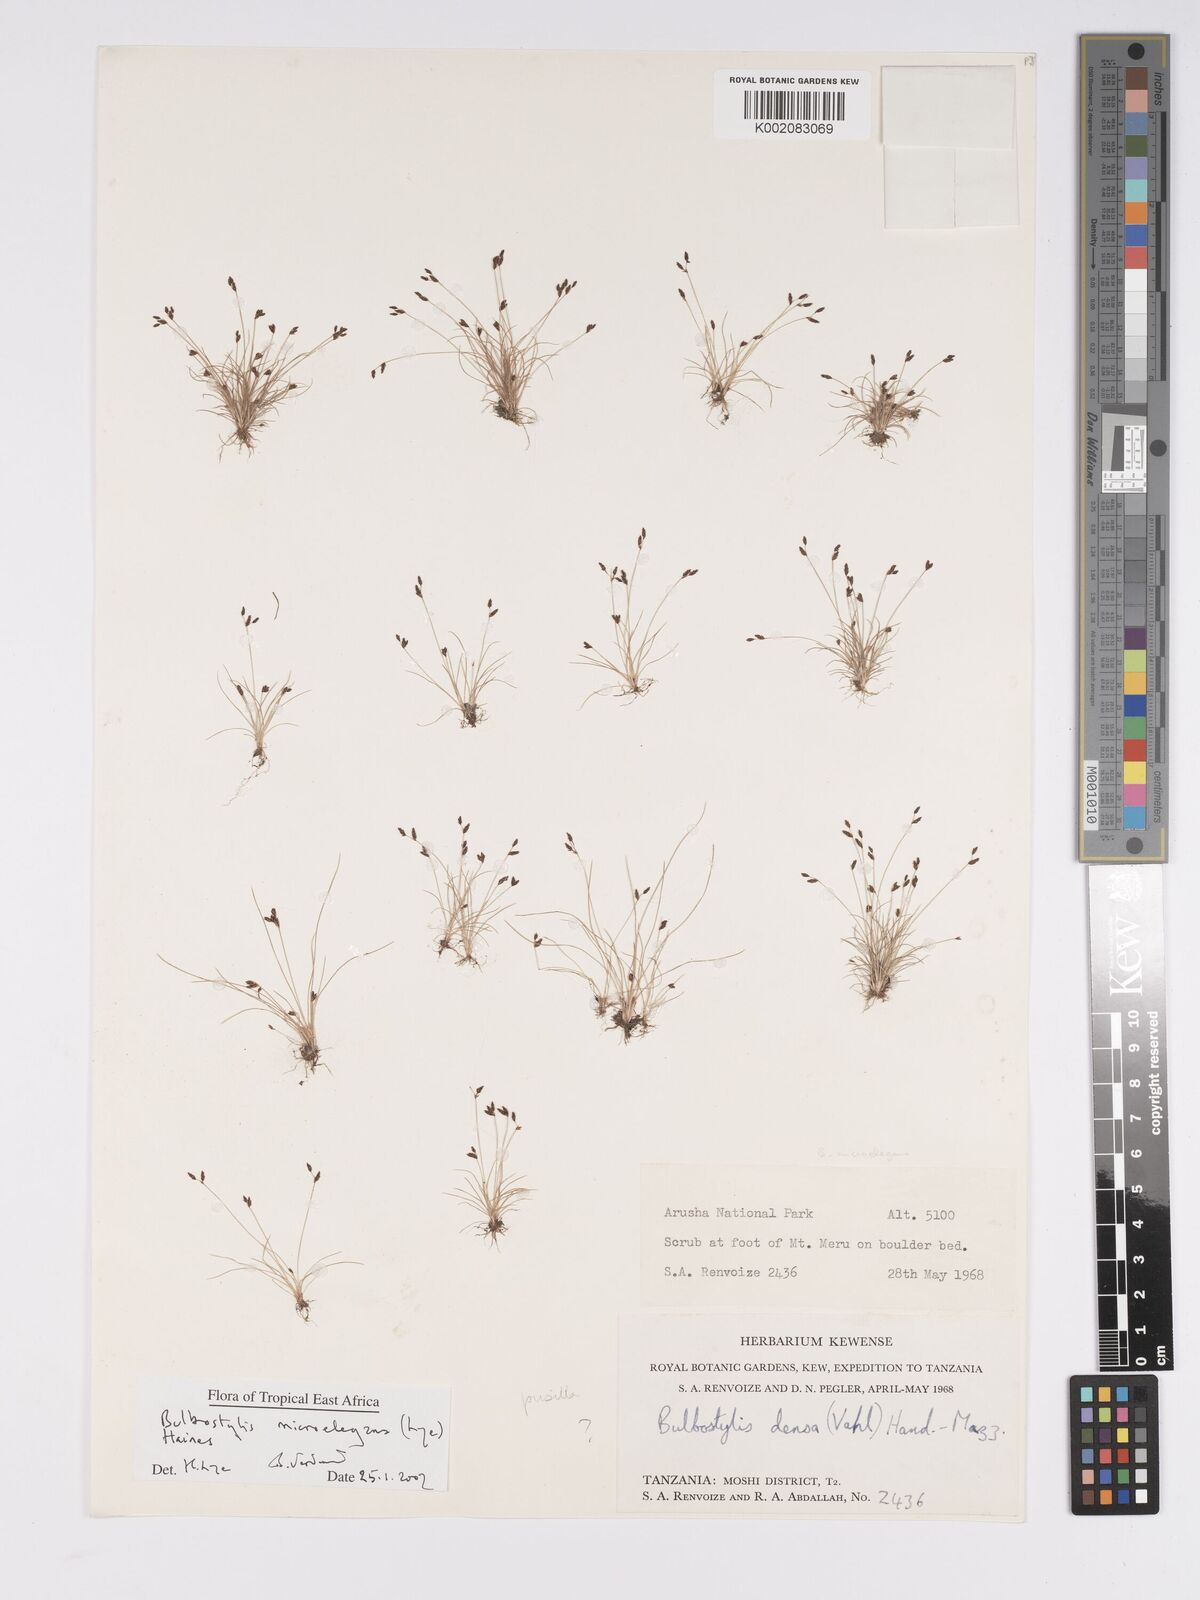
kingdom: Plantae
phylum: Tracheophyta
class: Liliopsida
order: Poales
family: Cyperaceae
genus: Bulbostylis
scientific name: Bulbostylis microelegans
